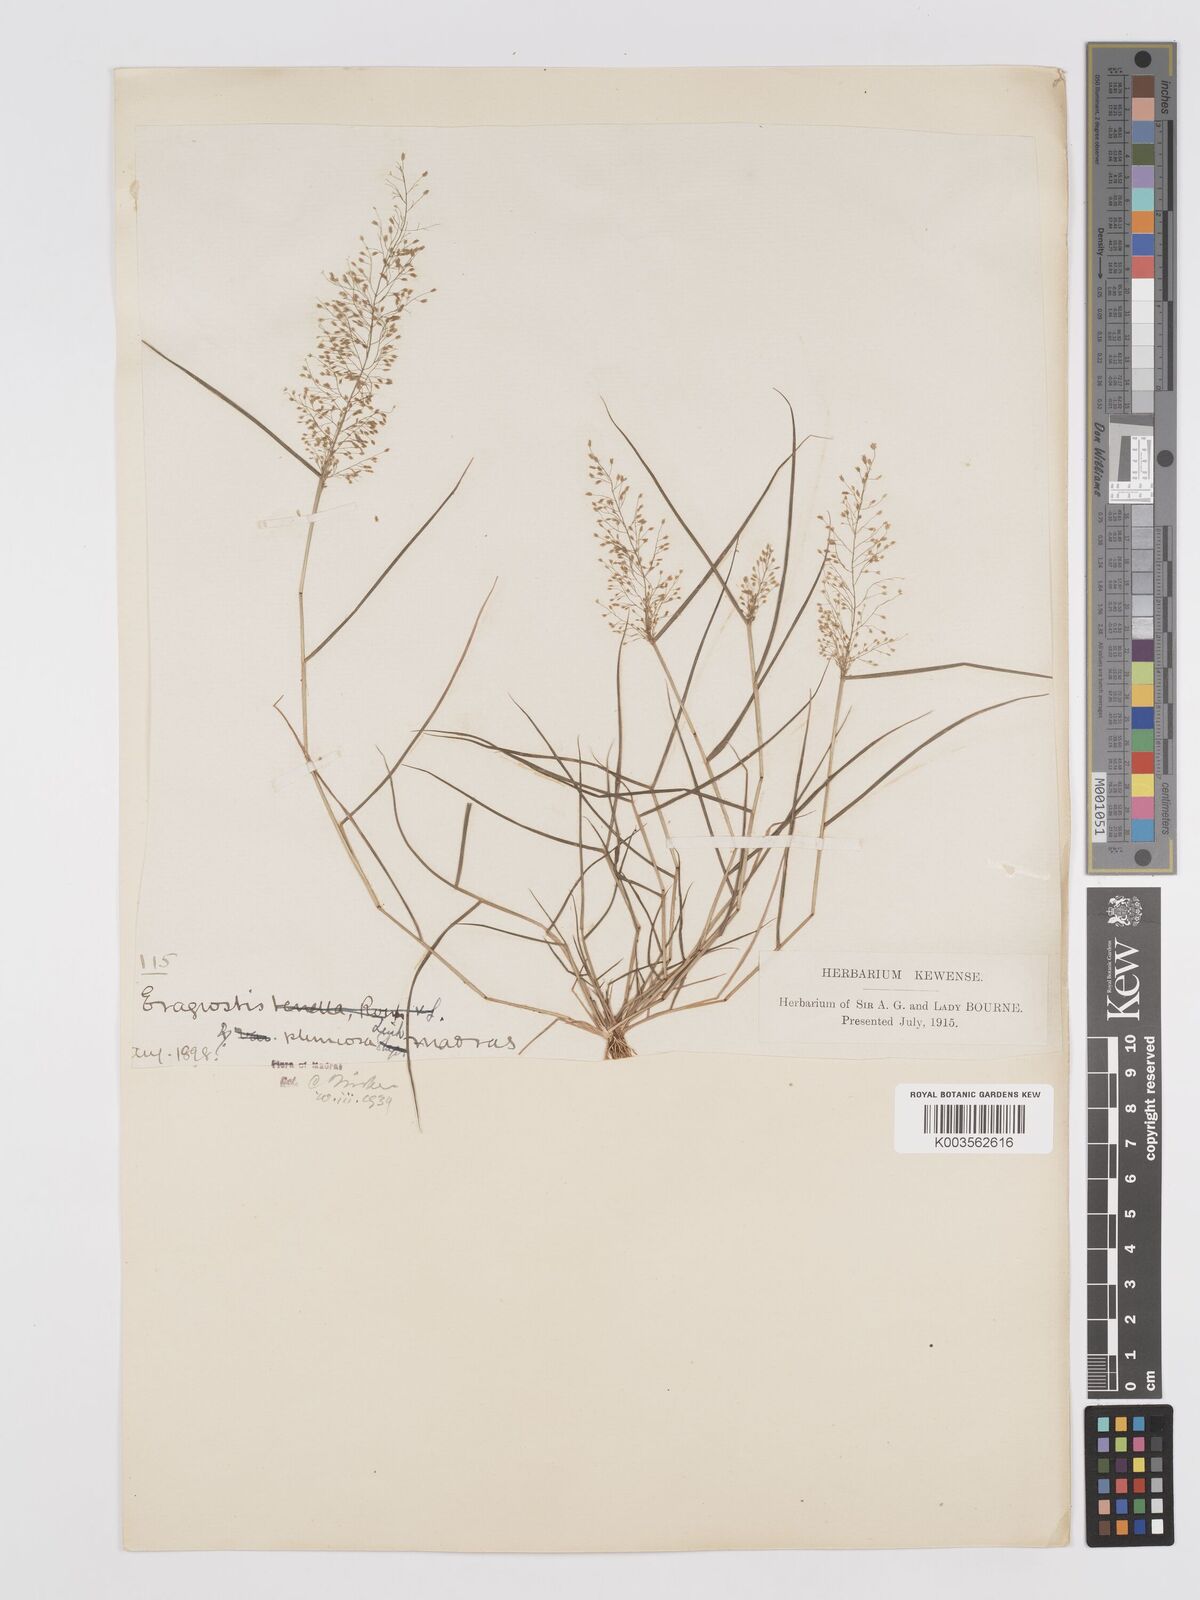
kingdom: Plantae
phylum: Tracheophyta
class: Liliopsida
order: Poales
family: Poaceae
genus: Eragrostis
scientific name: Eragrostis tenella
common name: Japanese lovegrass
